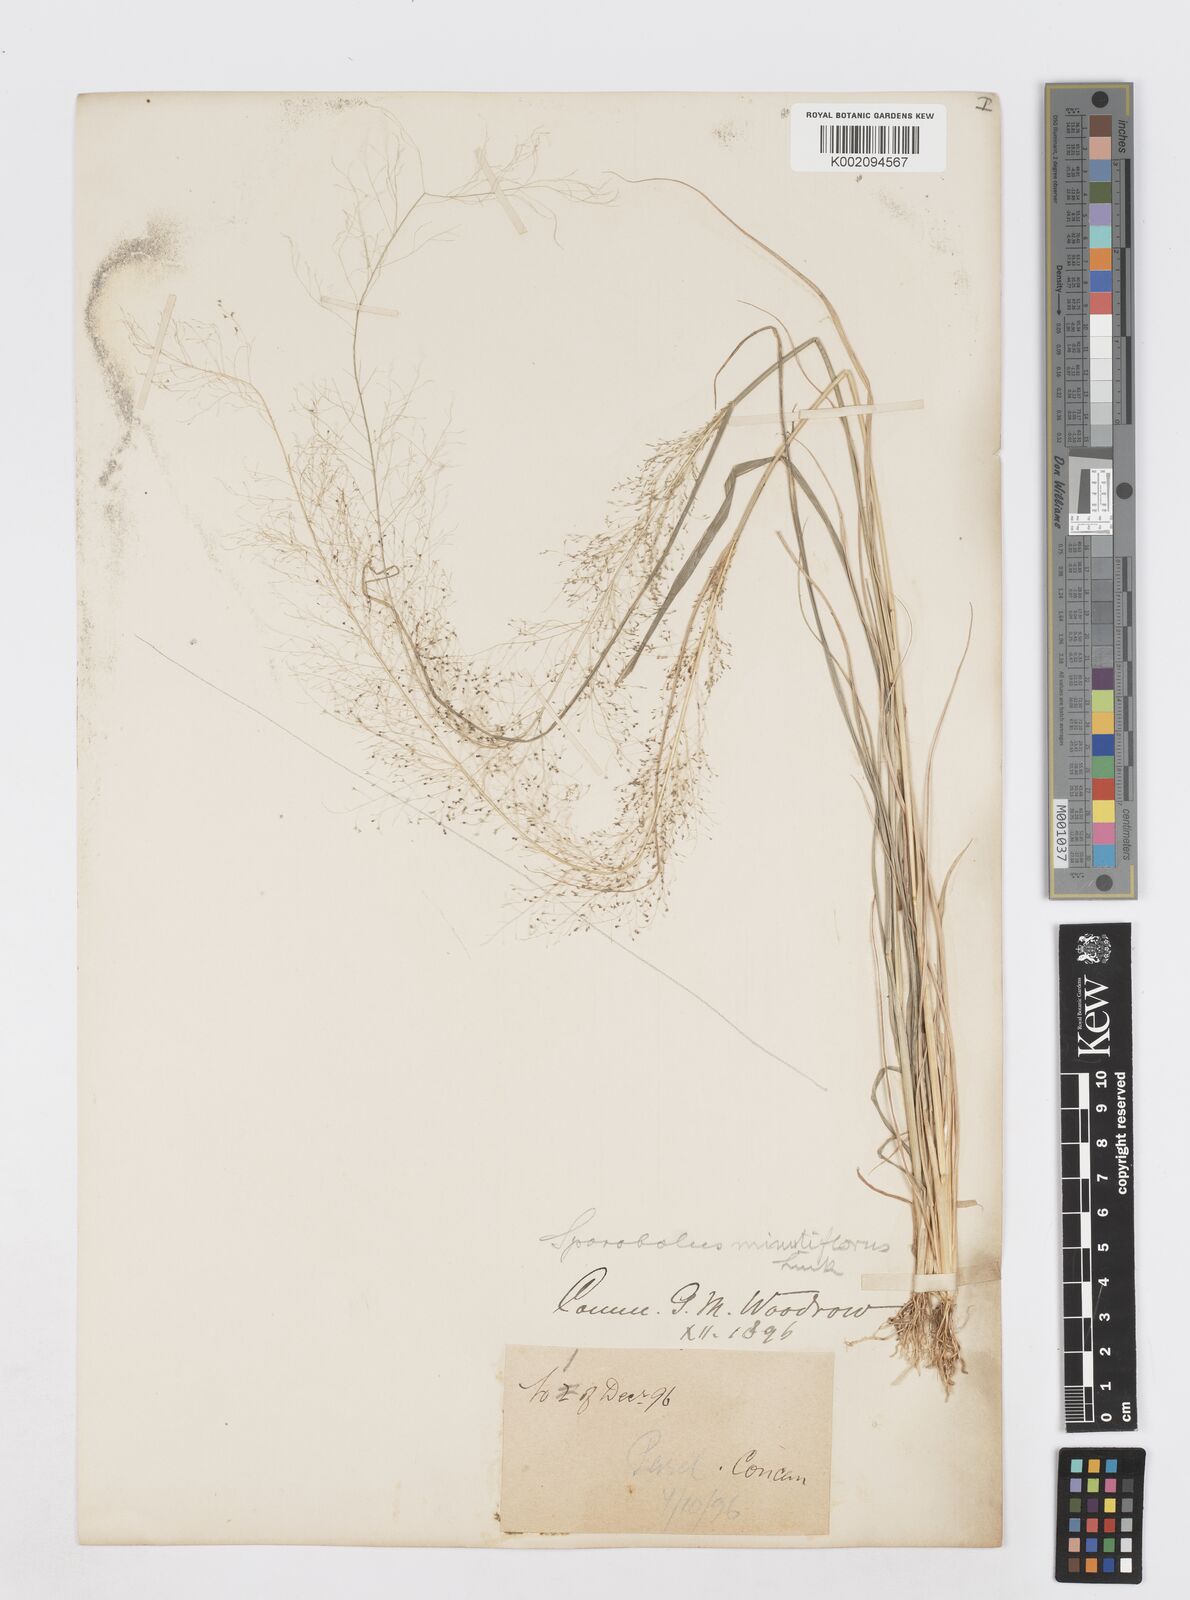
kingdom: Plantae
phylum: Tracheophyta
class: Liliopsida
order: Poales
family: Poaceae
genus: Sporobolus
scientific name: Sporobolus tenuissimus
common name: Tropical dropseed
